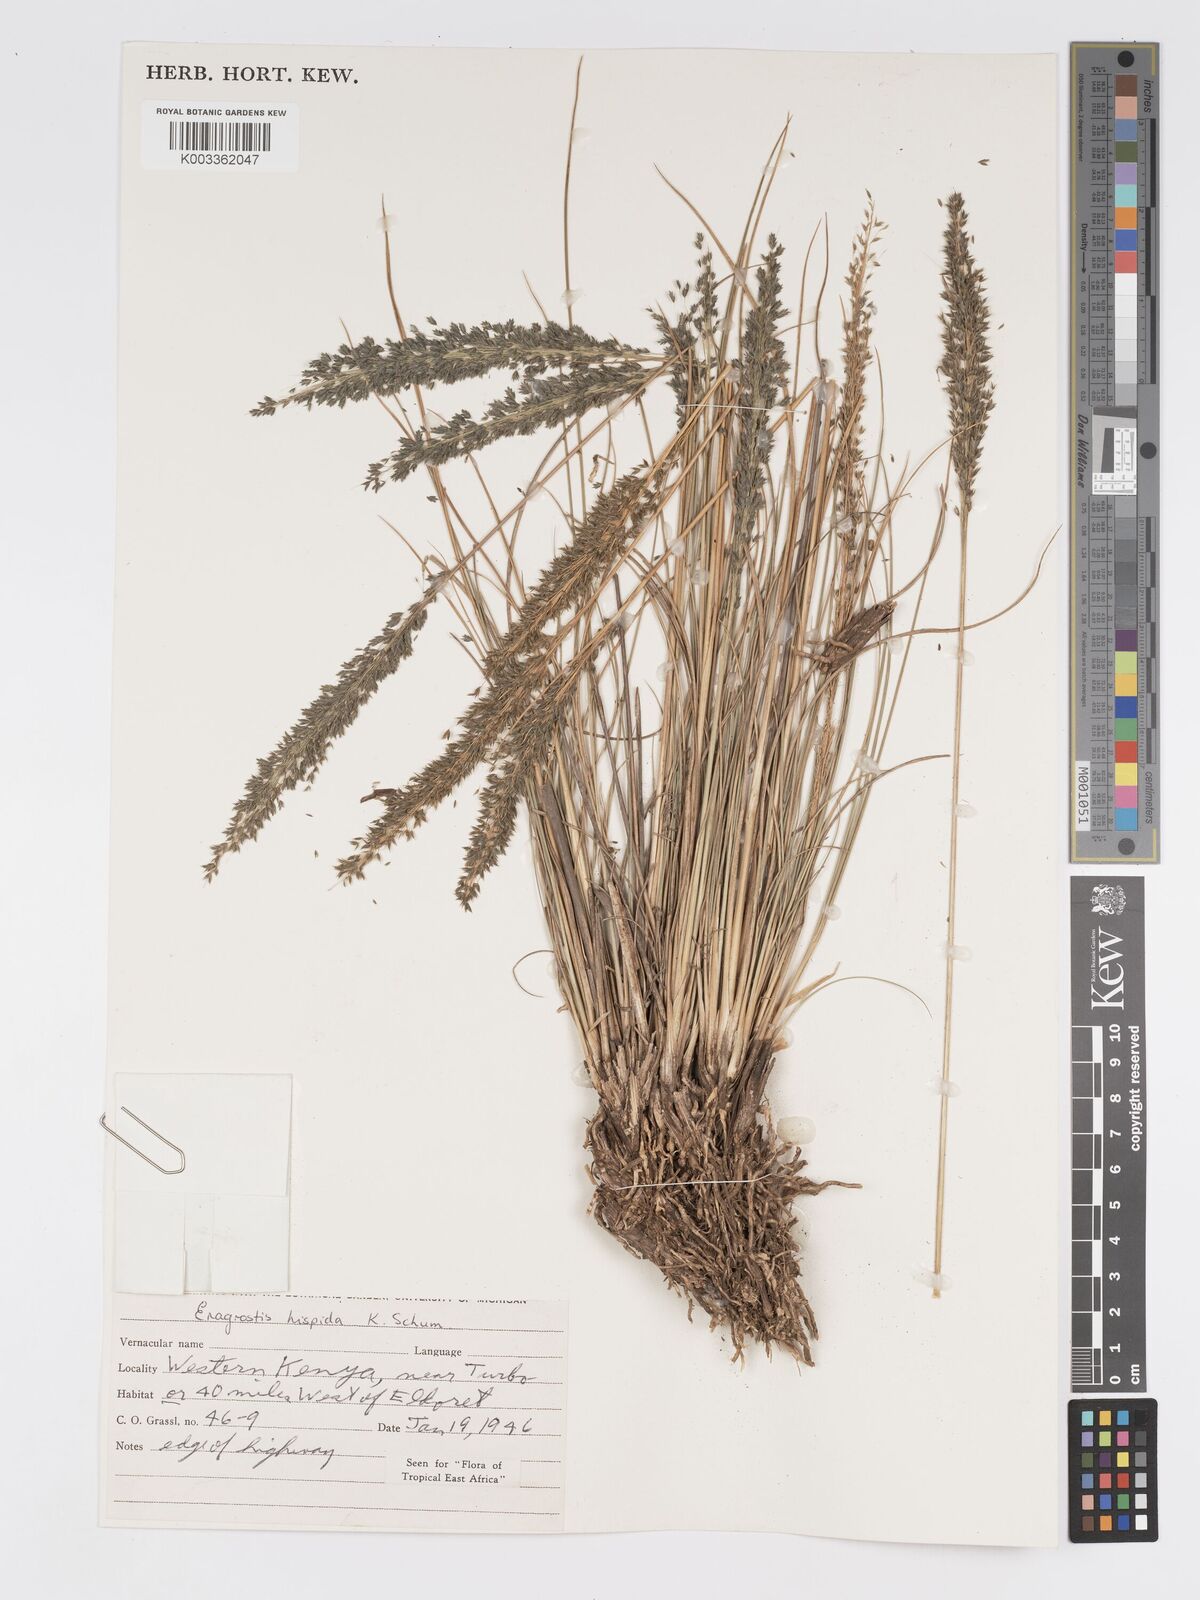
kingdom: Plantae
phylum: Tracheophyta
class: Liliopsida
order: Poales
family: Poaceae
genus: Eragrostis
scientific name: Eragrostis hispida
